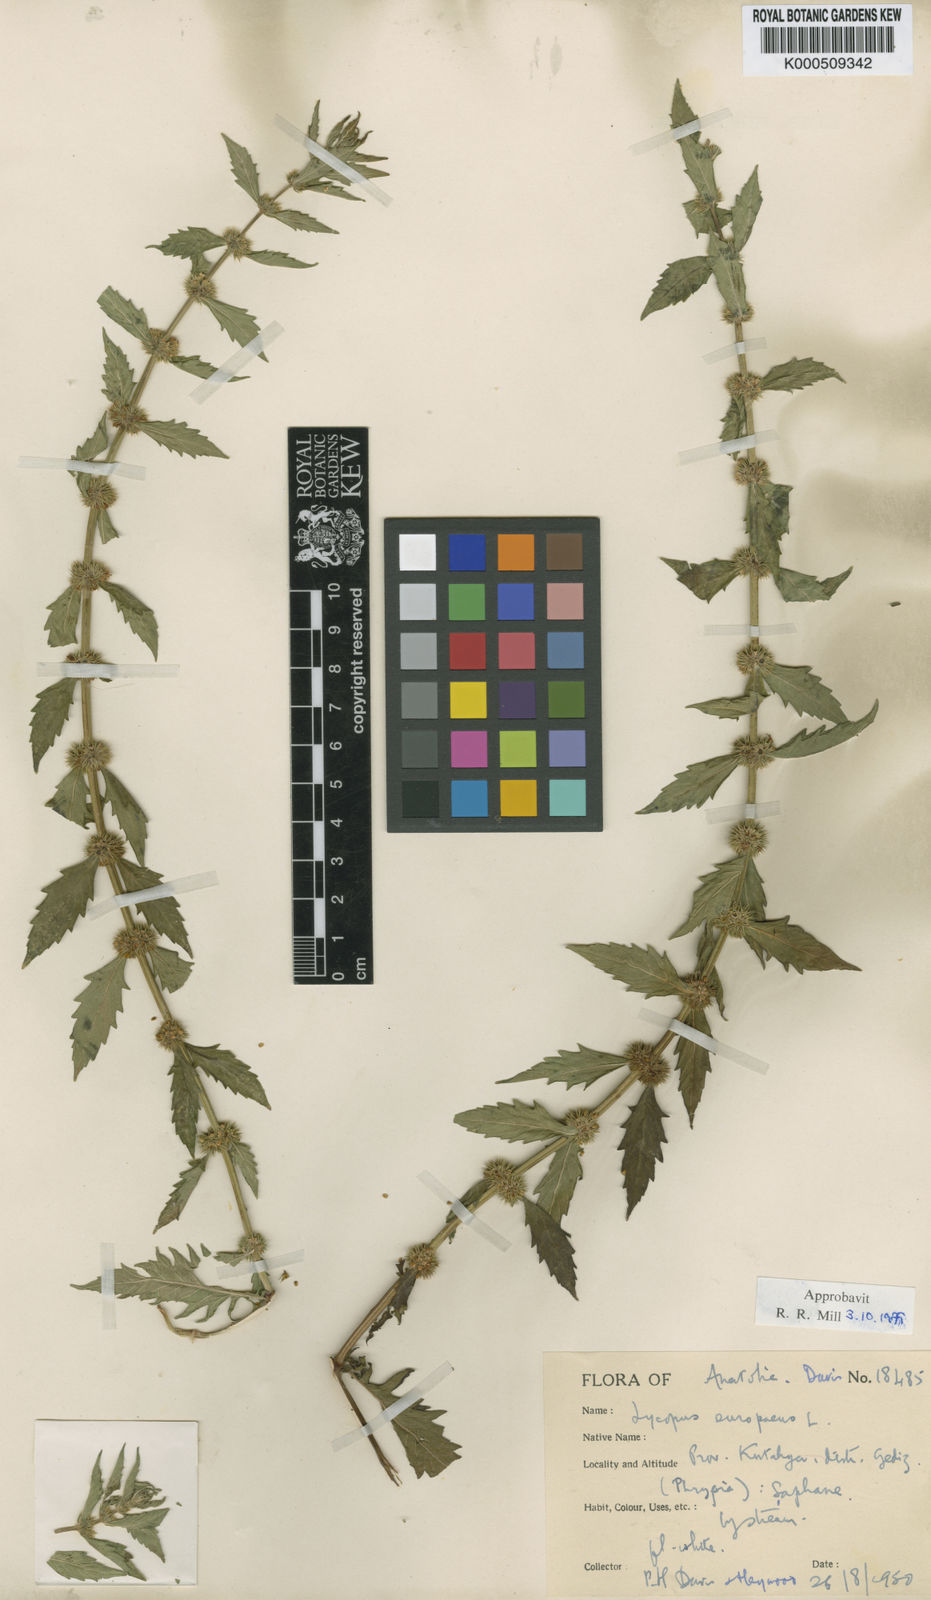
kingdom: Plantae
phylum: Tracheophyta
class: Magnoliopsida
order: Lamiales
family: Lamiaceae
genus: Lycopus
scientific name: Lycopus europaeus
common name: European bugleweed
